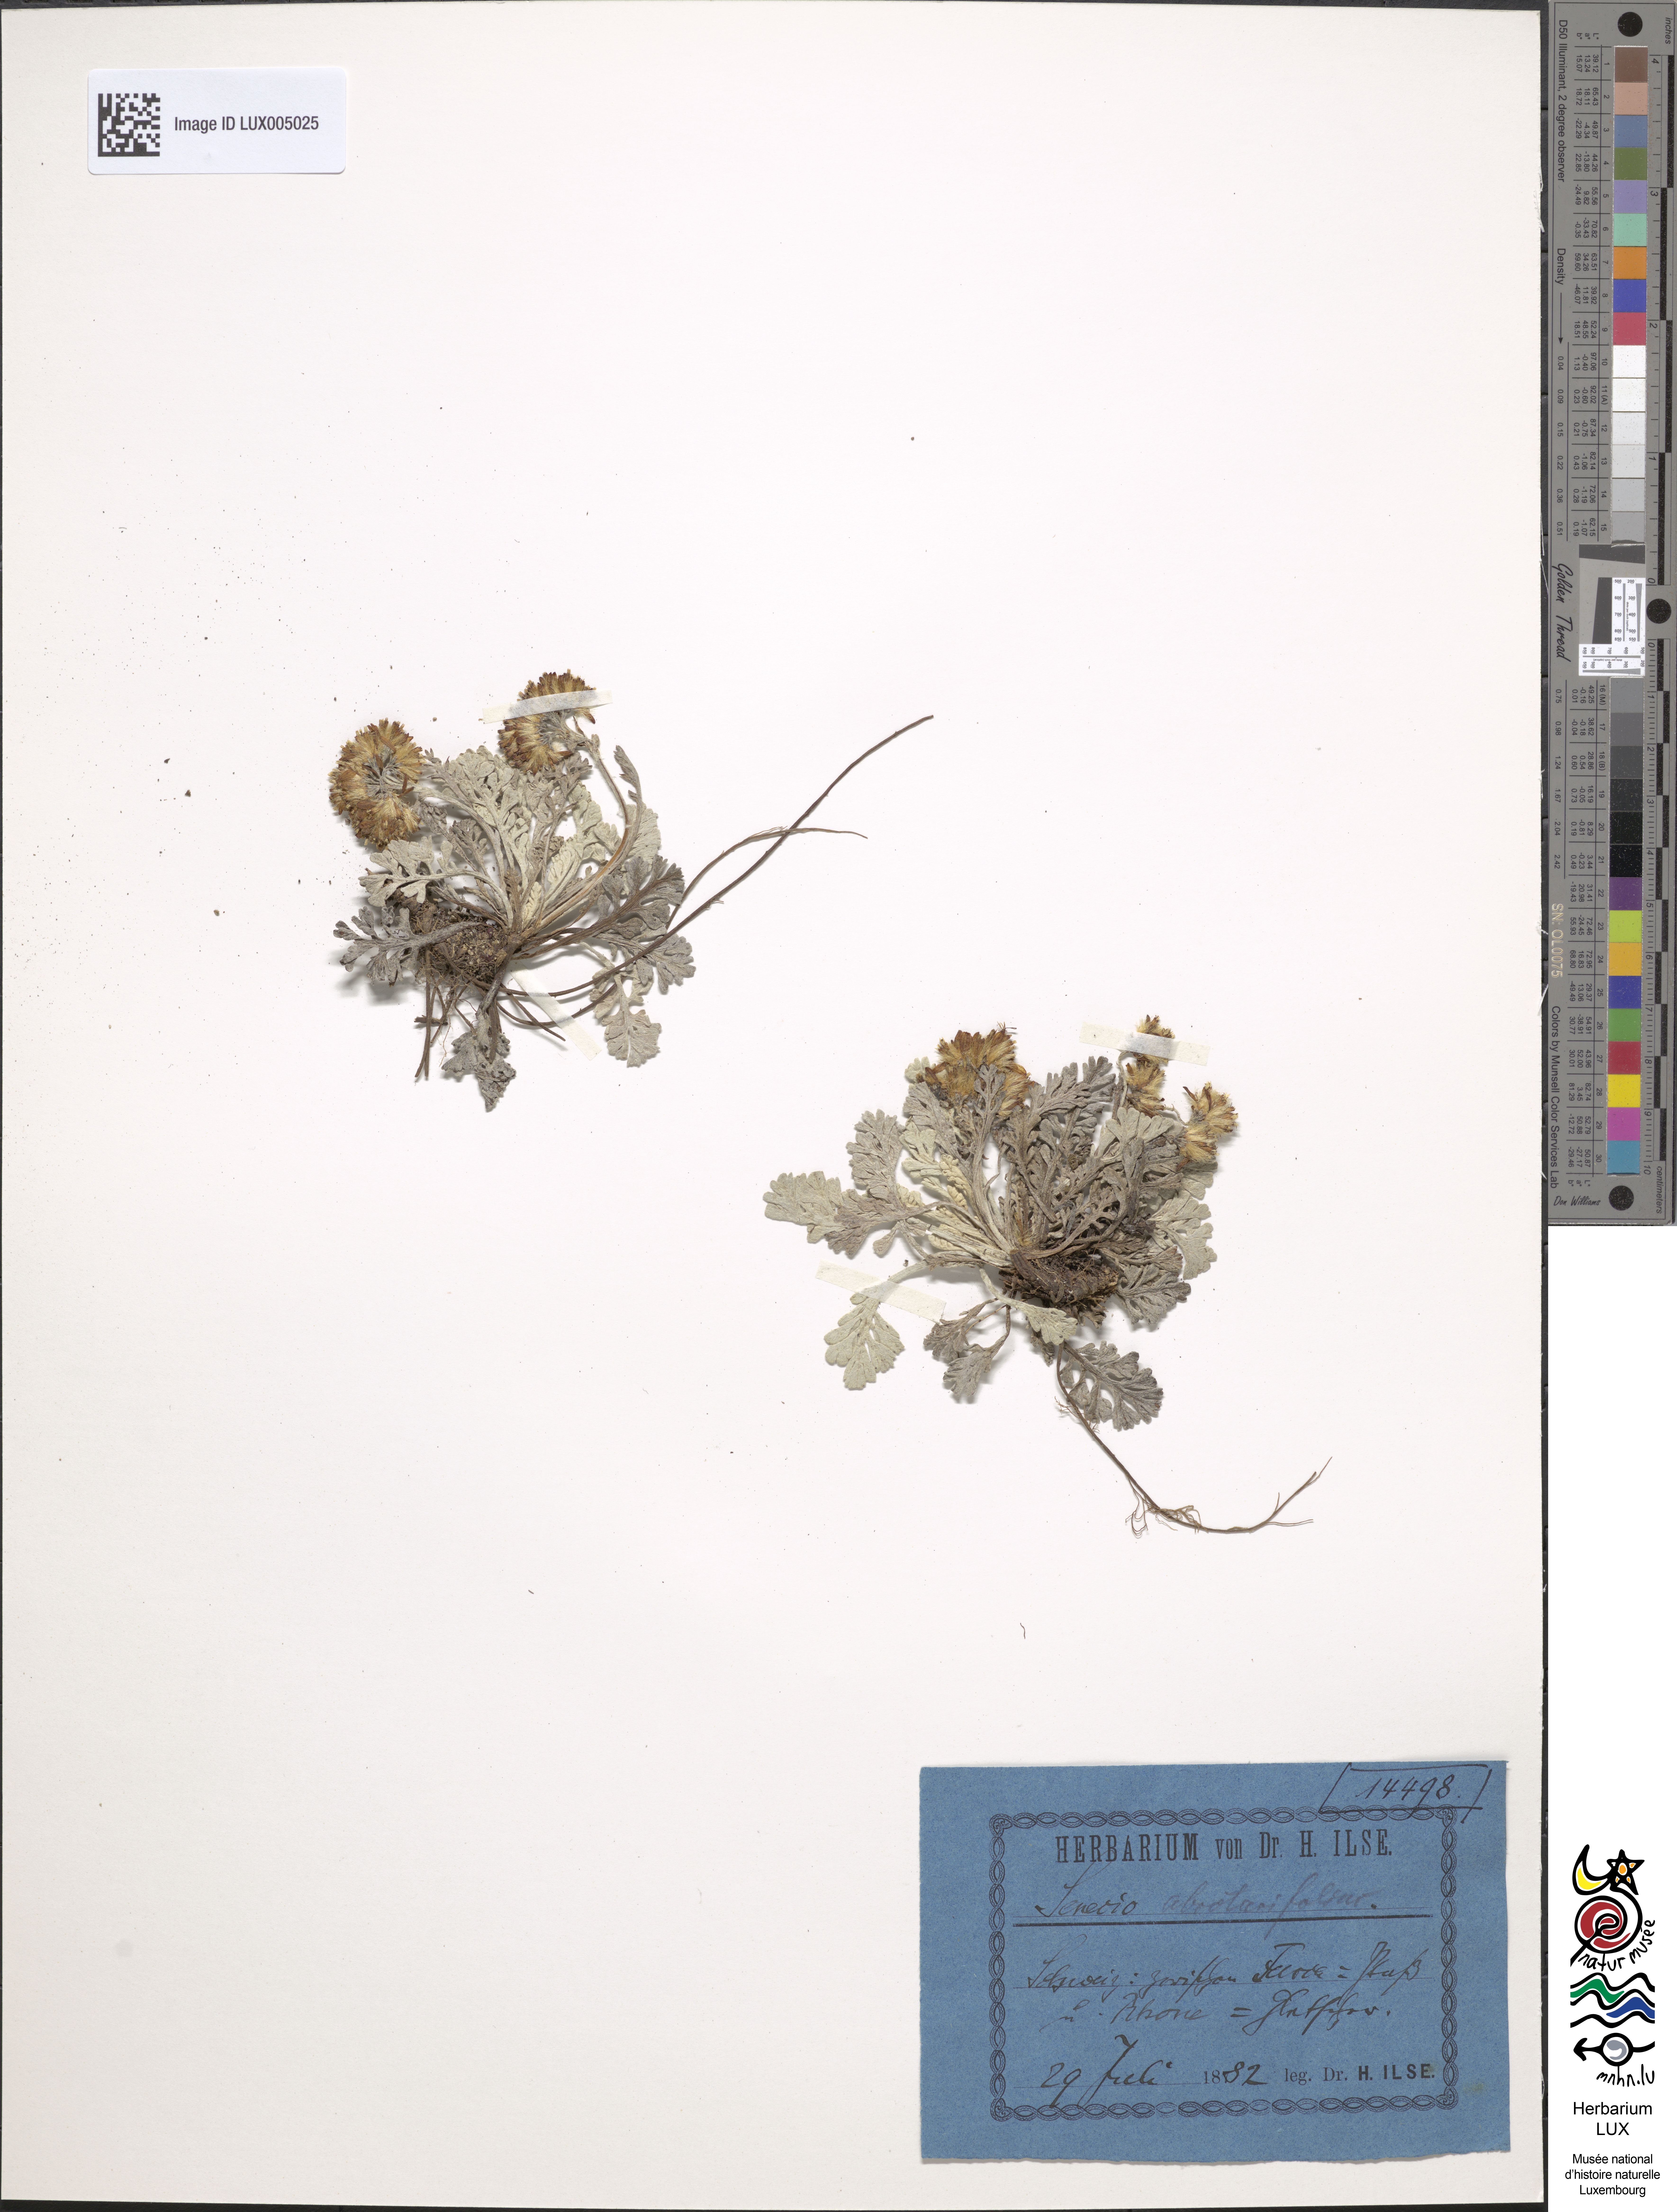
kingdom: Plantae
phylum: Tracheophyta
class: Magnoliopsida
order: Asterales
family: Asteraceae
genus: Jacobaea
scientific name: Jacobaea abrotanifolia
